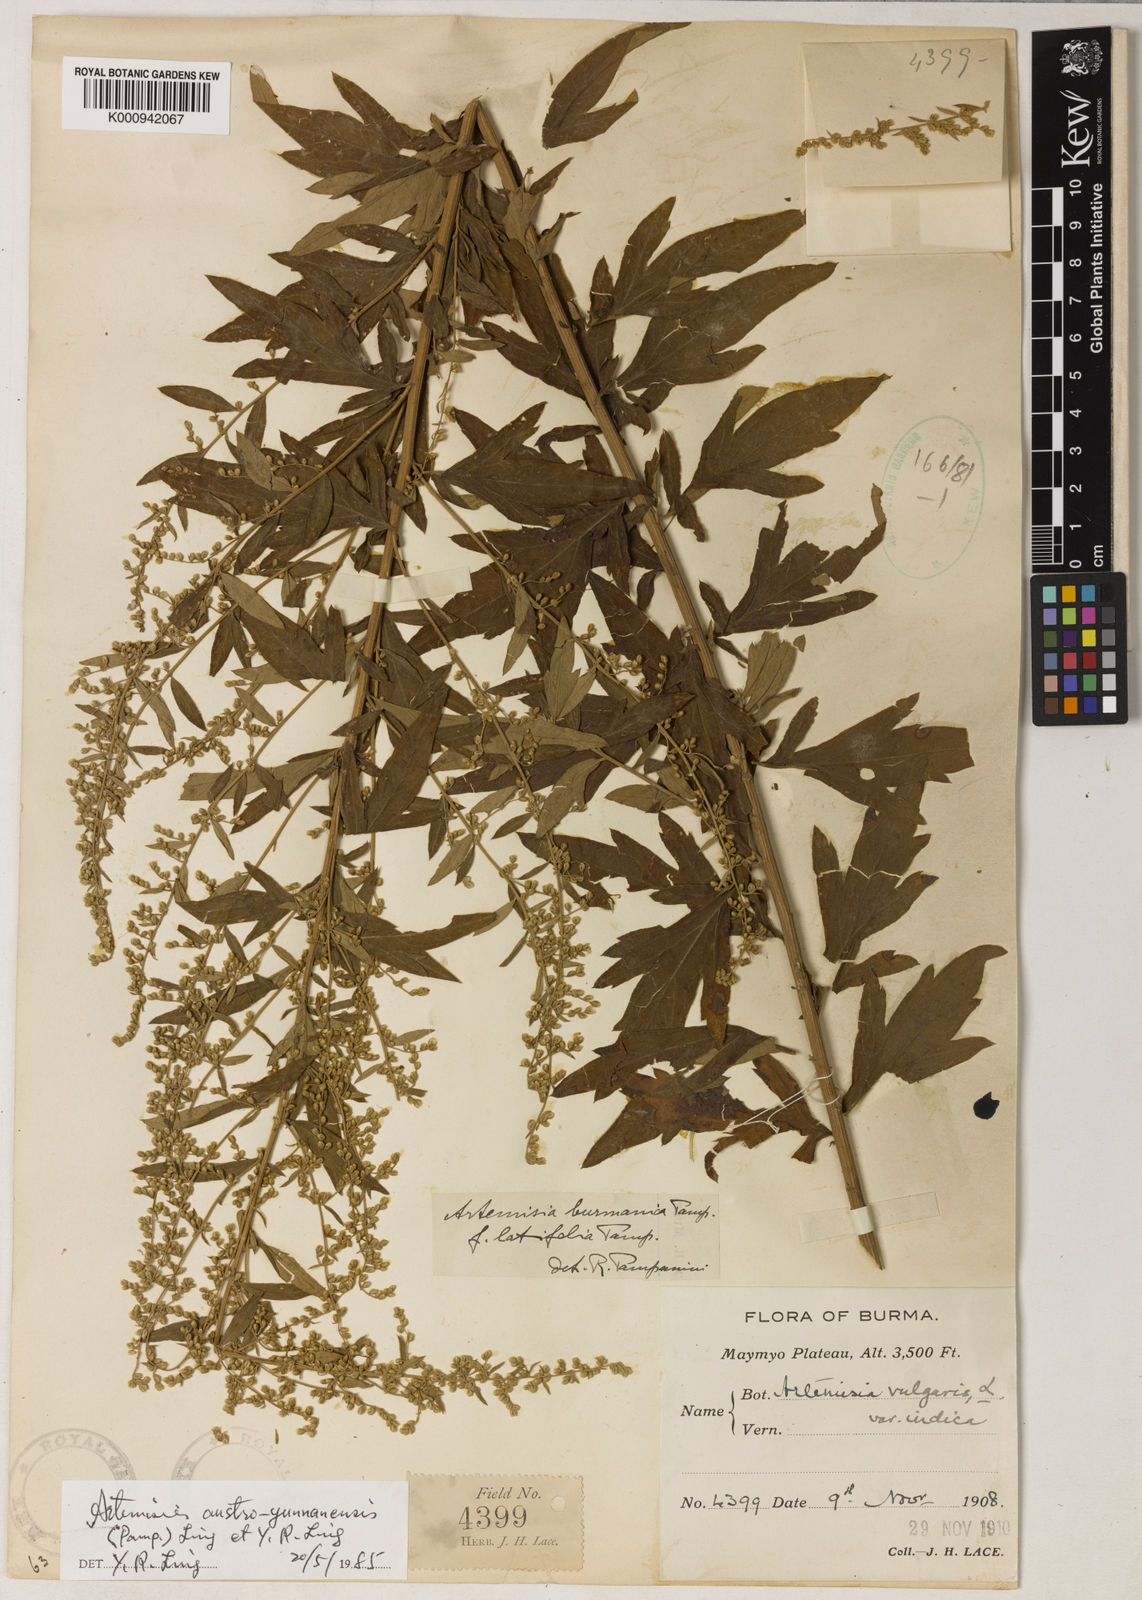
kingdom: Plantae
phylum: Tracheophyta
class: Magnoliopsida
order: Asterales
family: Asteraceae
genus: Artemisia
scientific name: Artemisia austroyunnanensis
